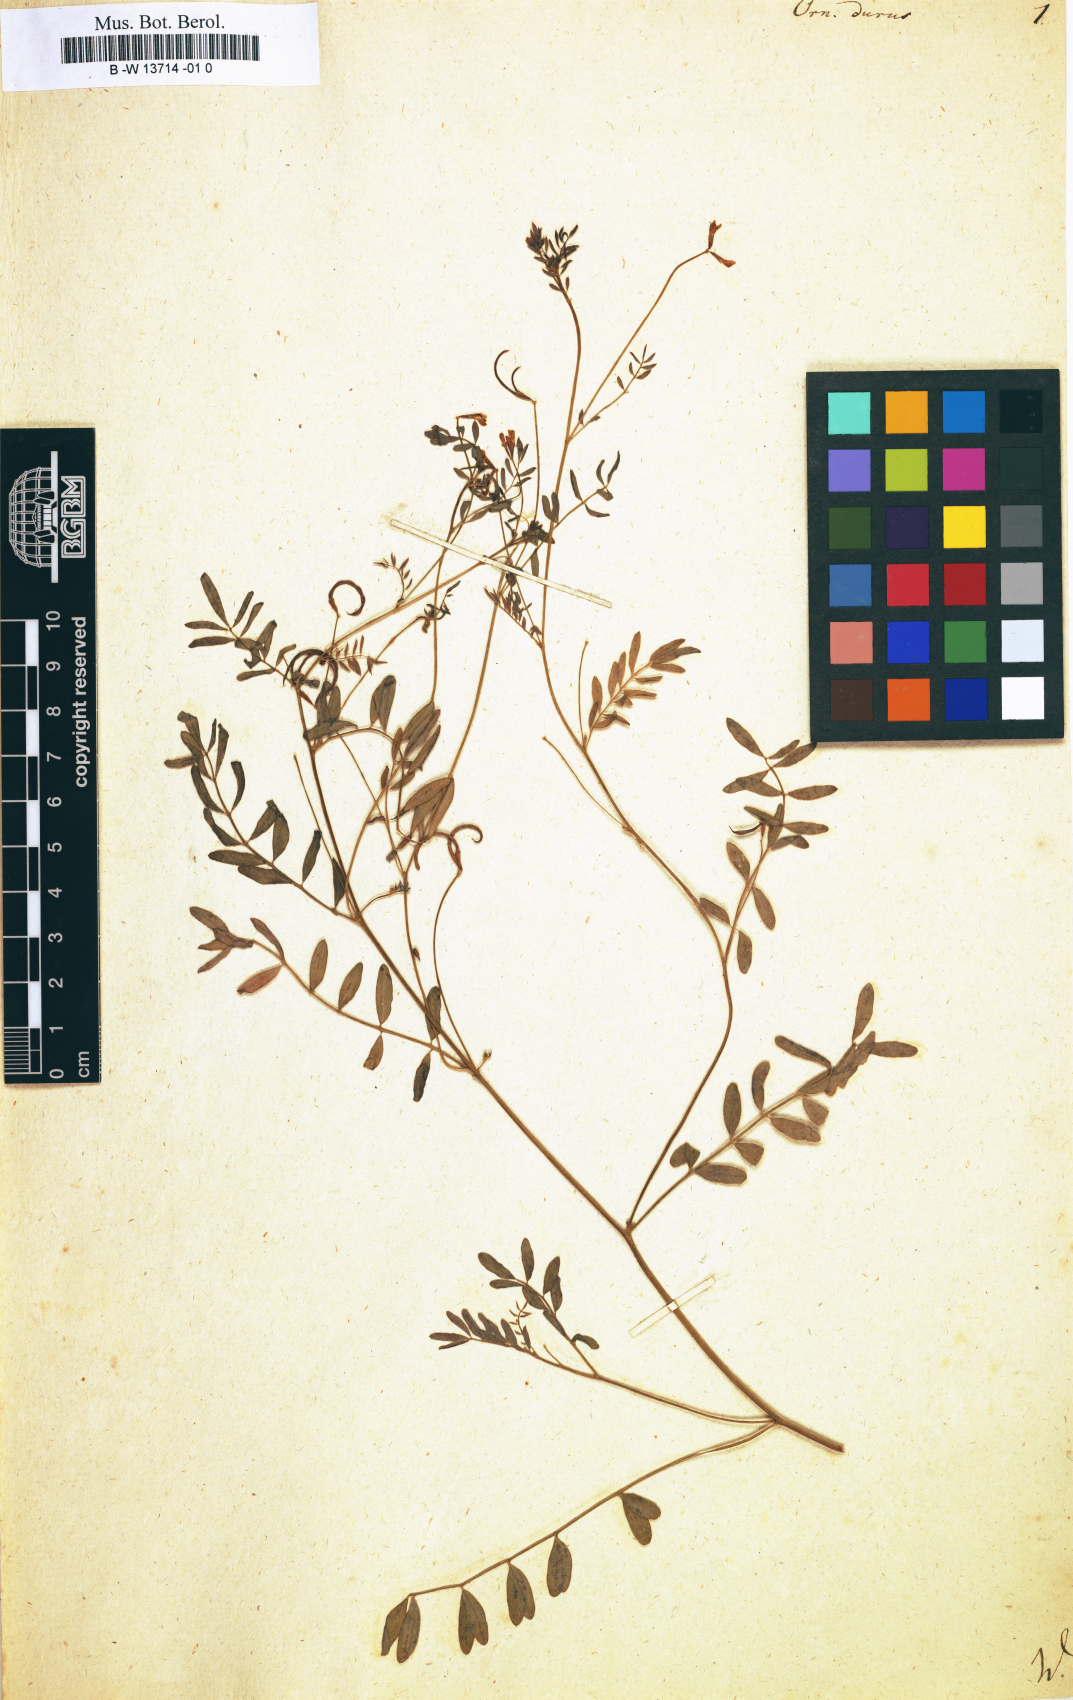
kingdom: Plantae
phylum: Tracheophyta
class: Magnoliopsida
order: Fabales
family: Fabaceae
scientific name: Fabaceae
